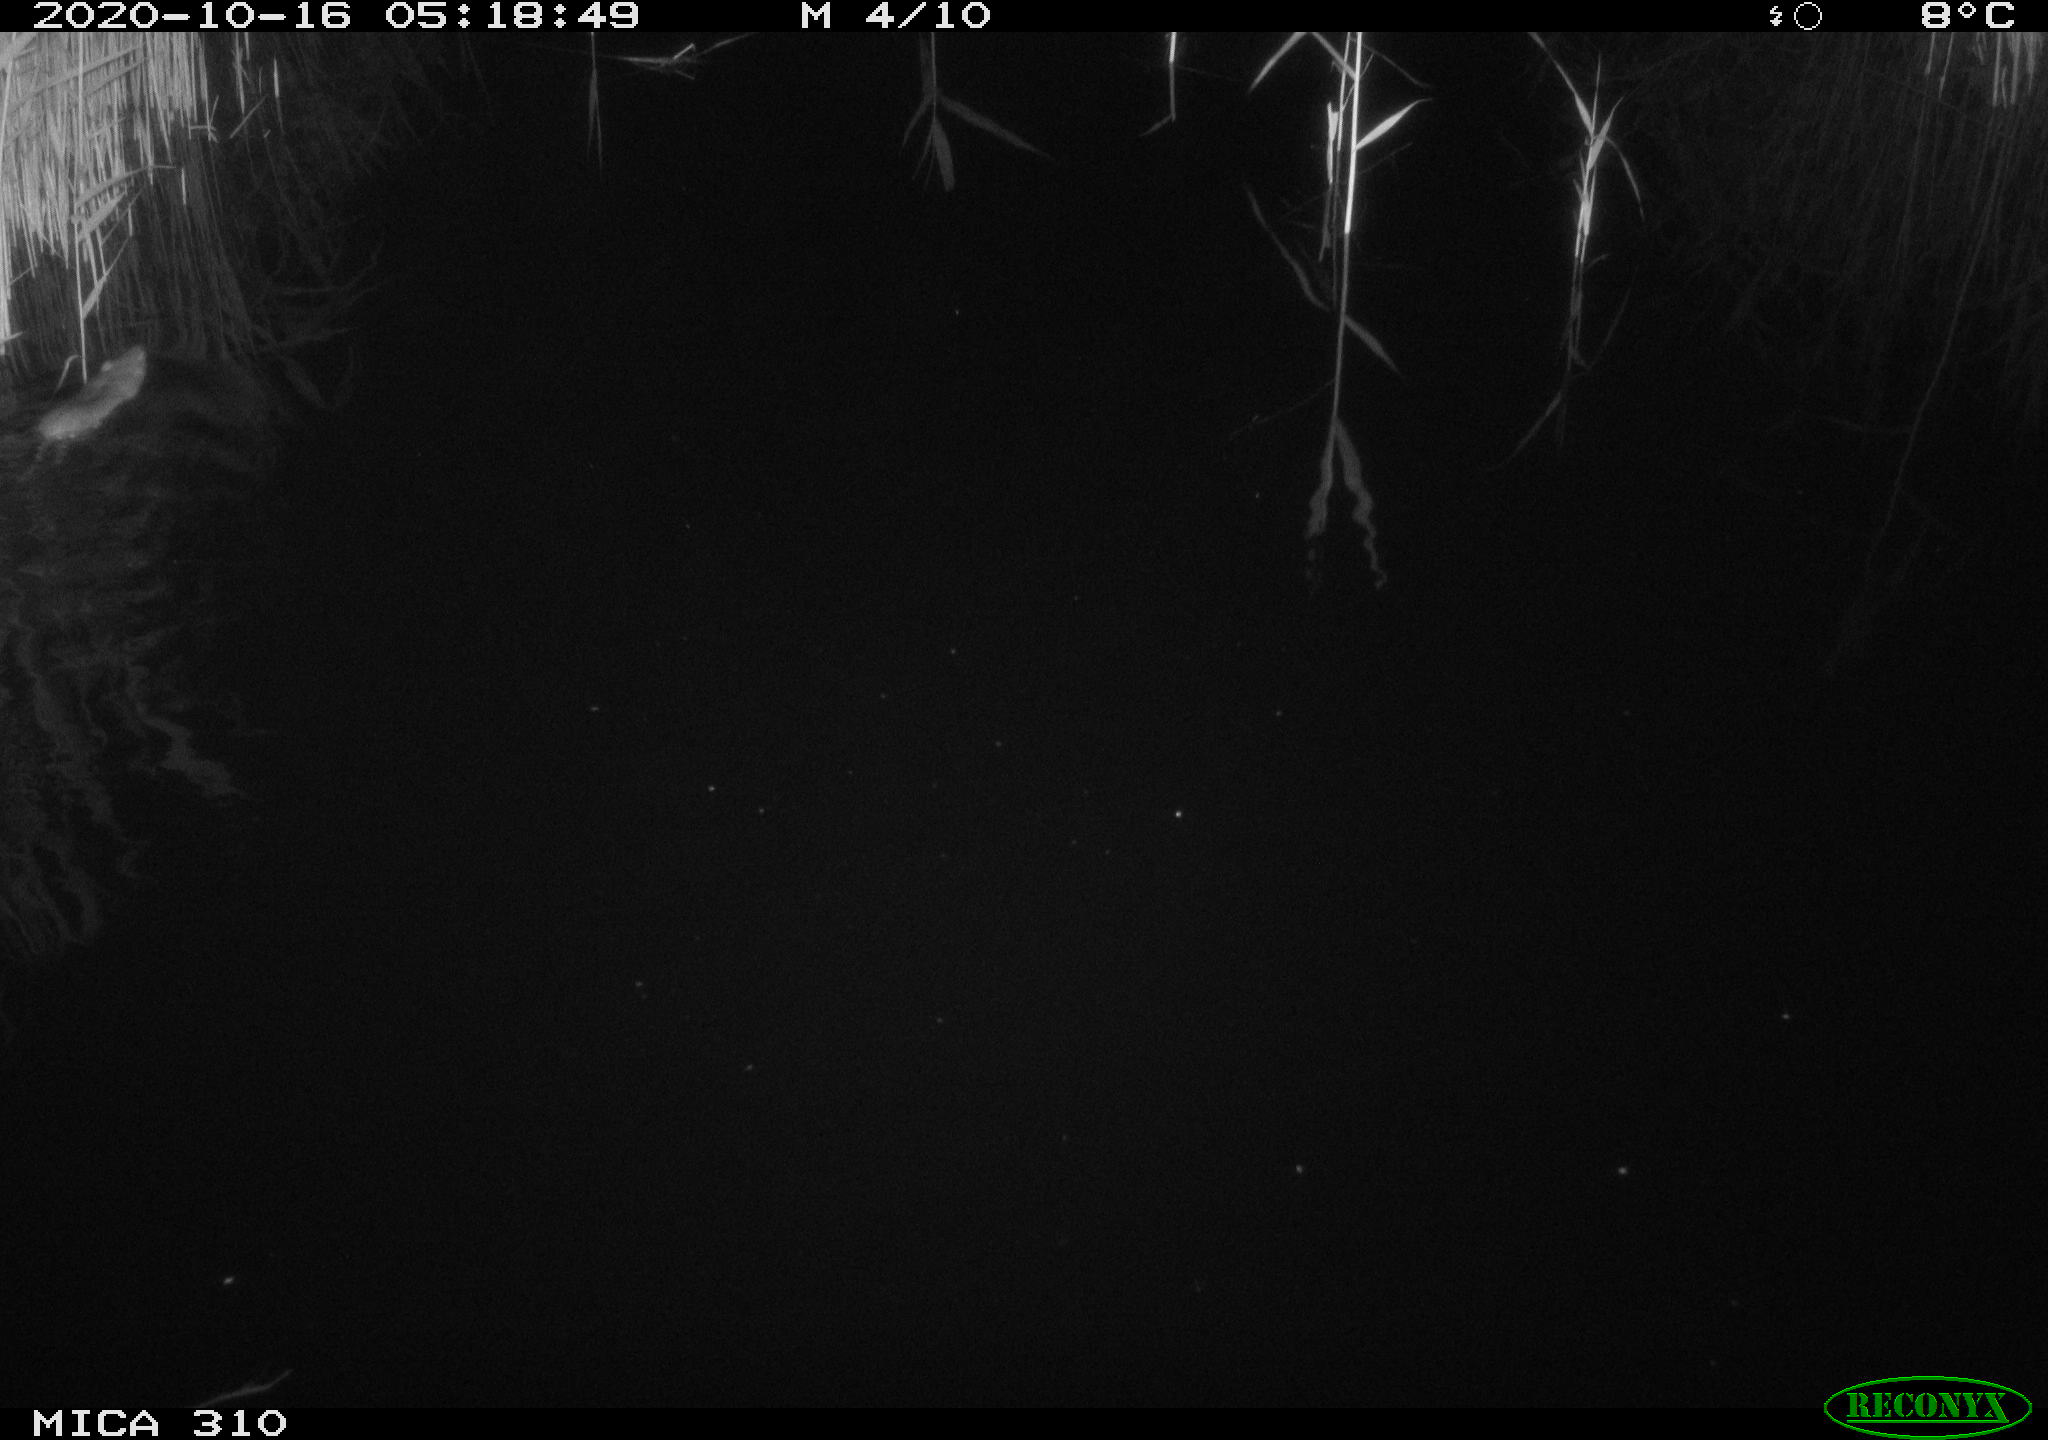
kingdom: Animalia
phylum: Chordata
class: Mammalia
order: Rodentia
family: Muridae
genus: Rattus
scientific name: Rattus norvegicus
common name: Brown rat
